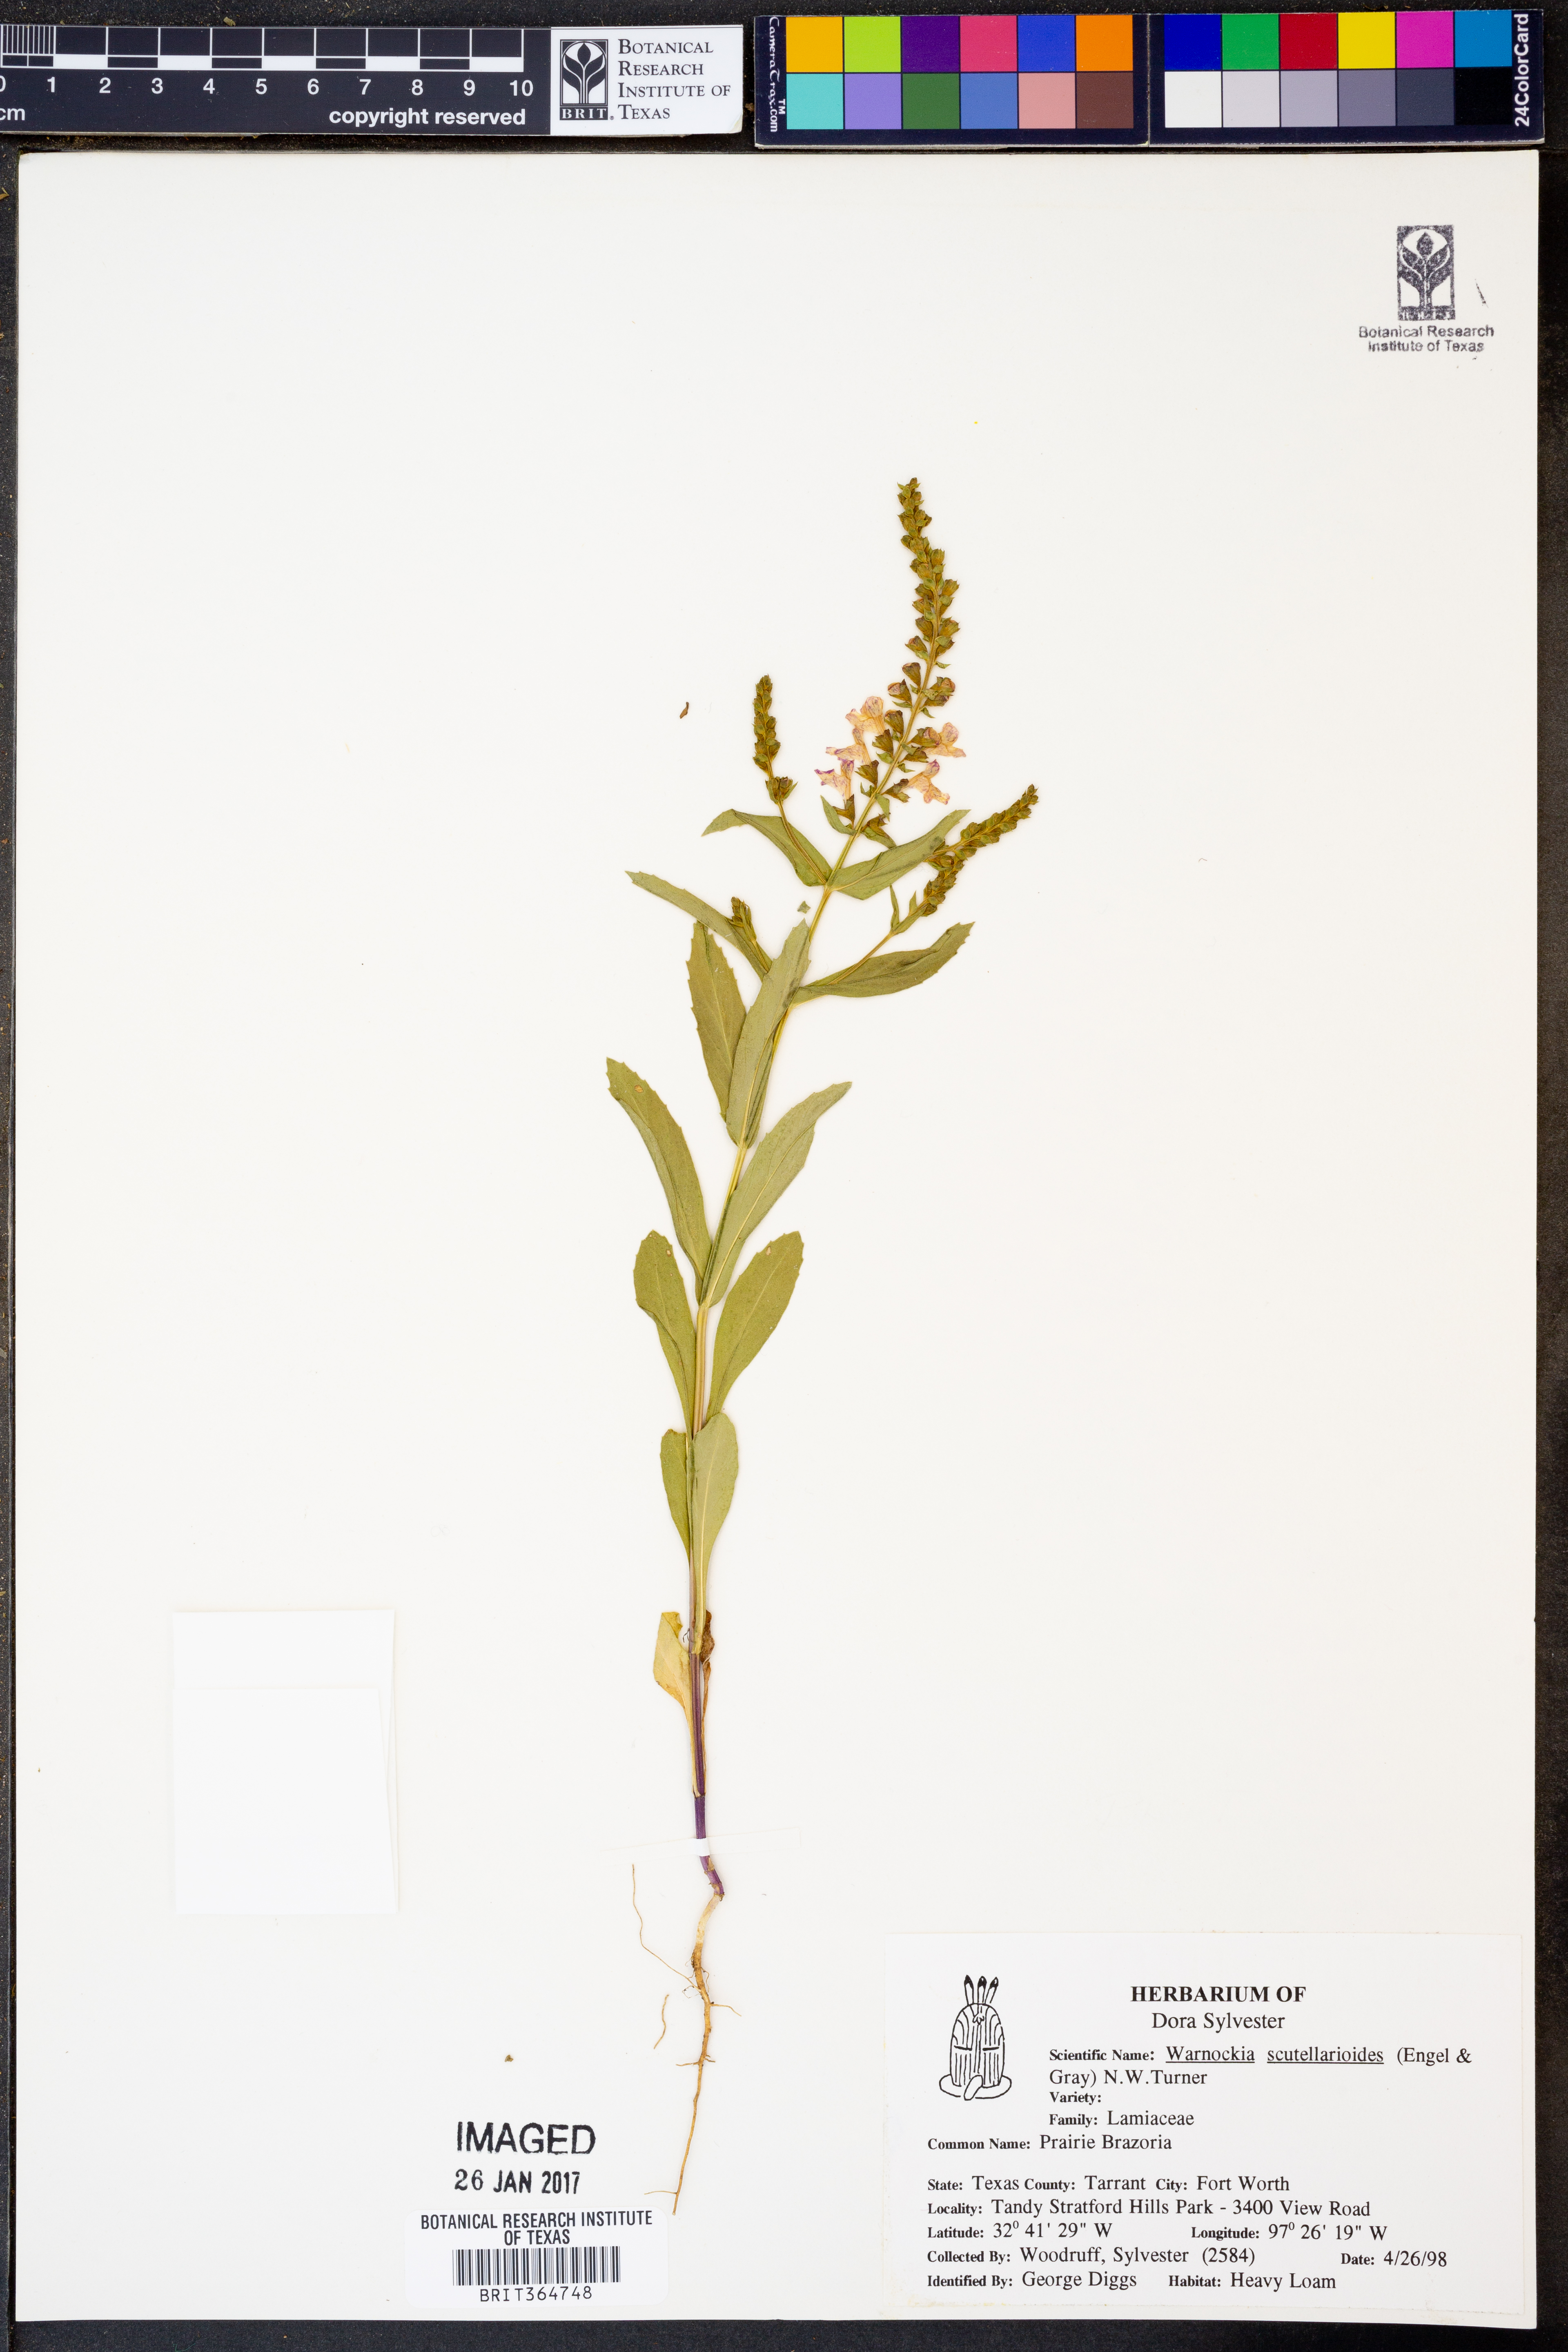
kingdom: Plantae
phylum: Tracheophyta
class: Magnoliopsida
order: Lamiales
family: Lamiaceae
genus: Warnockia
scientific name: Warnockia scutellarioides
